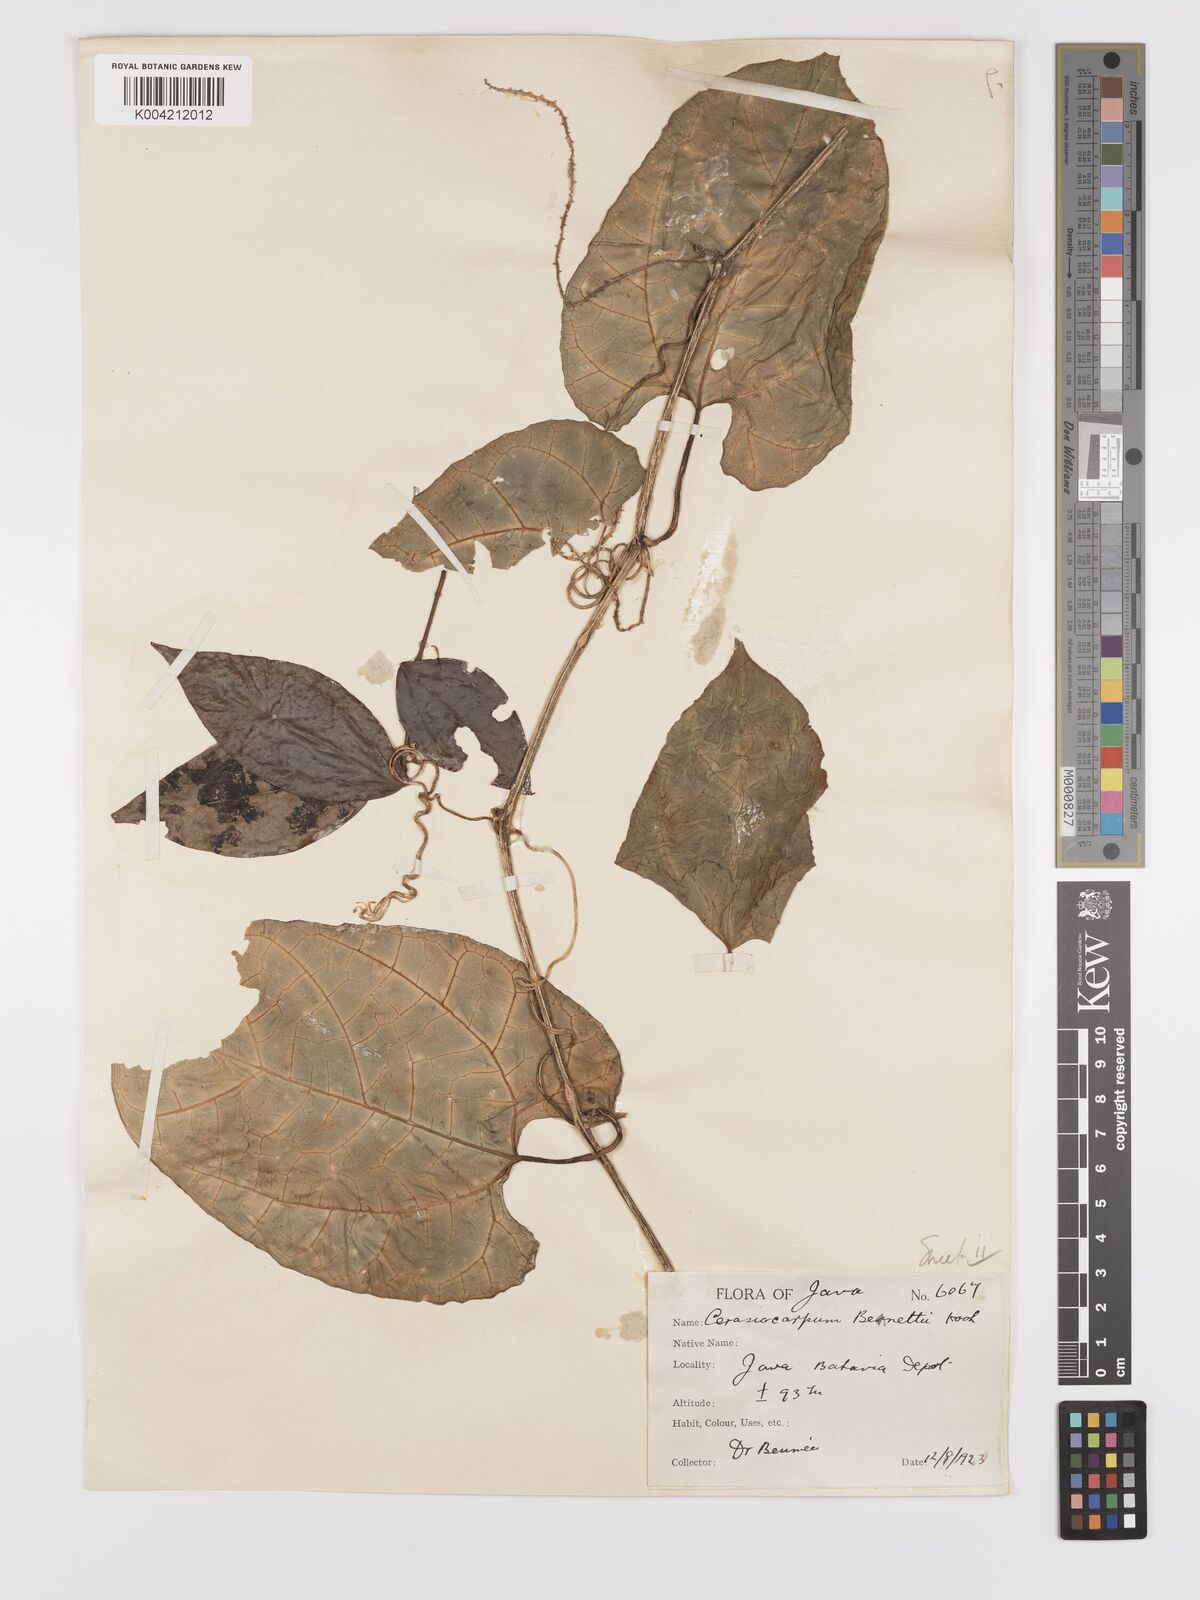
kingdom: Plantae
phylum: Tracheophyta
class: Magnoliopsida
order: Cucurbitales
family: Cucurbitaceae
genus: Kedrostis
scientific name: Kedrostis courtallensis
